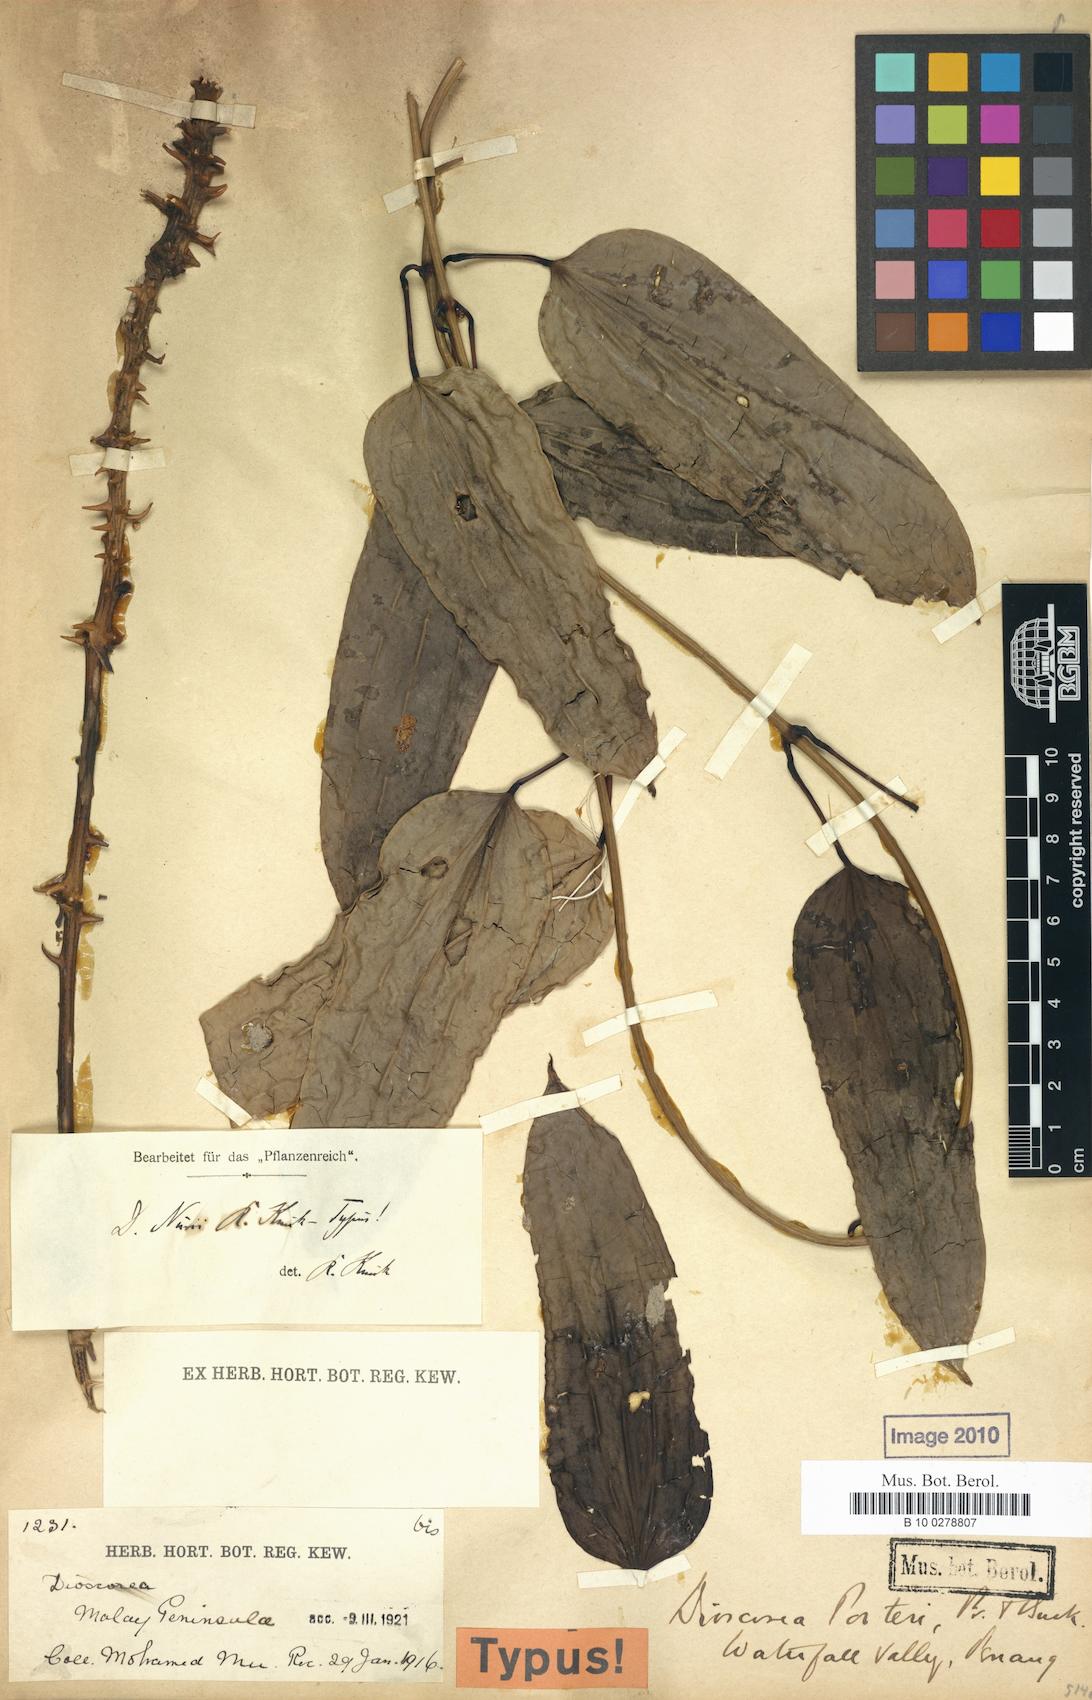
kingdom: Plantae
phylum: Tracheophyta
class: Liliopsida
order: Dioscoreales
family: Dioscoreaceae
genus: Dioscorea
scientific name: Dioscorea kingii
